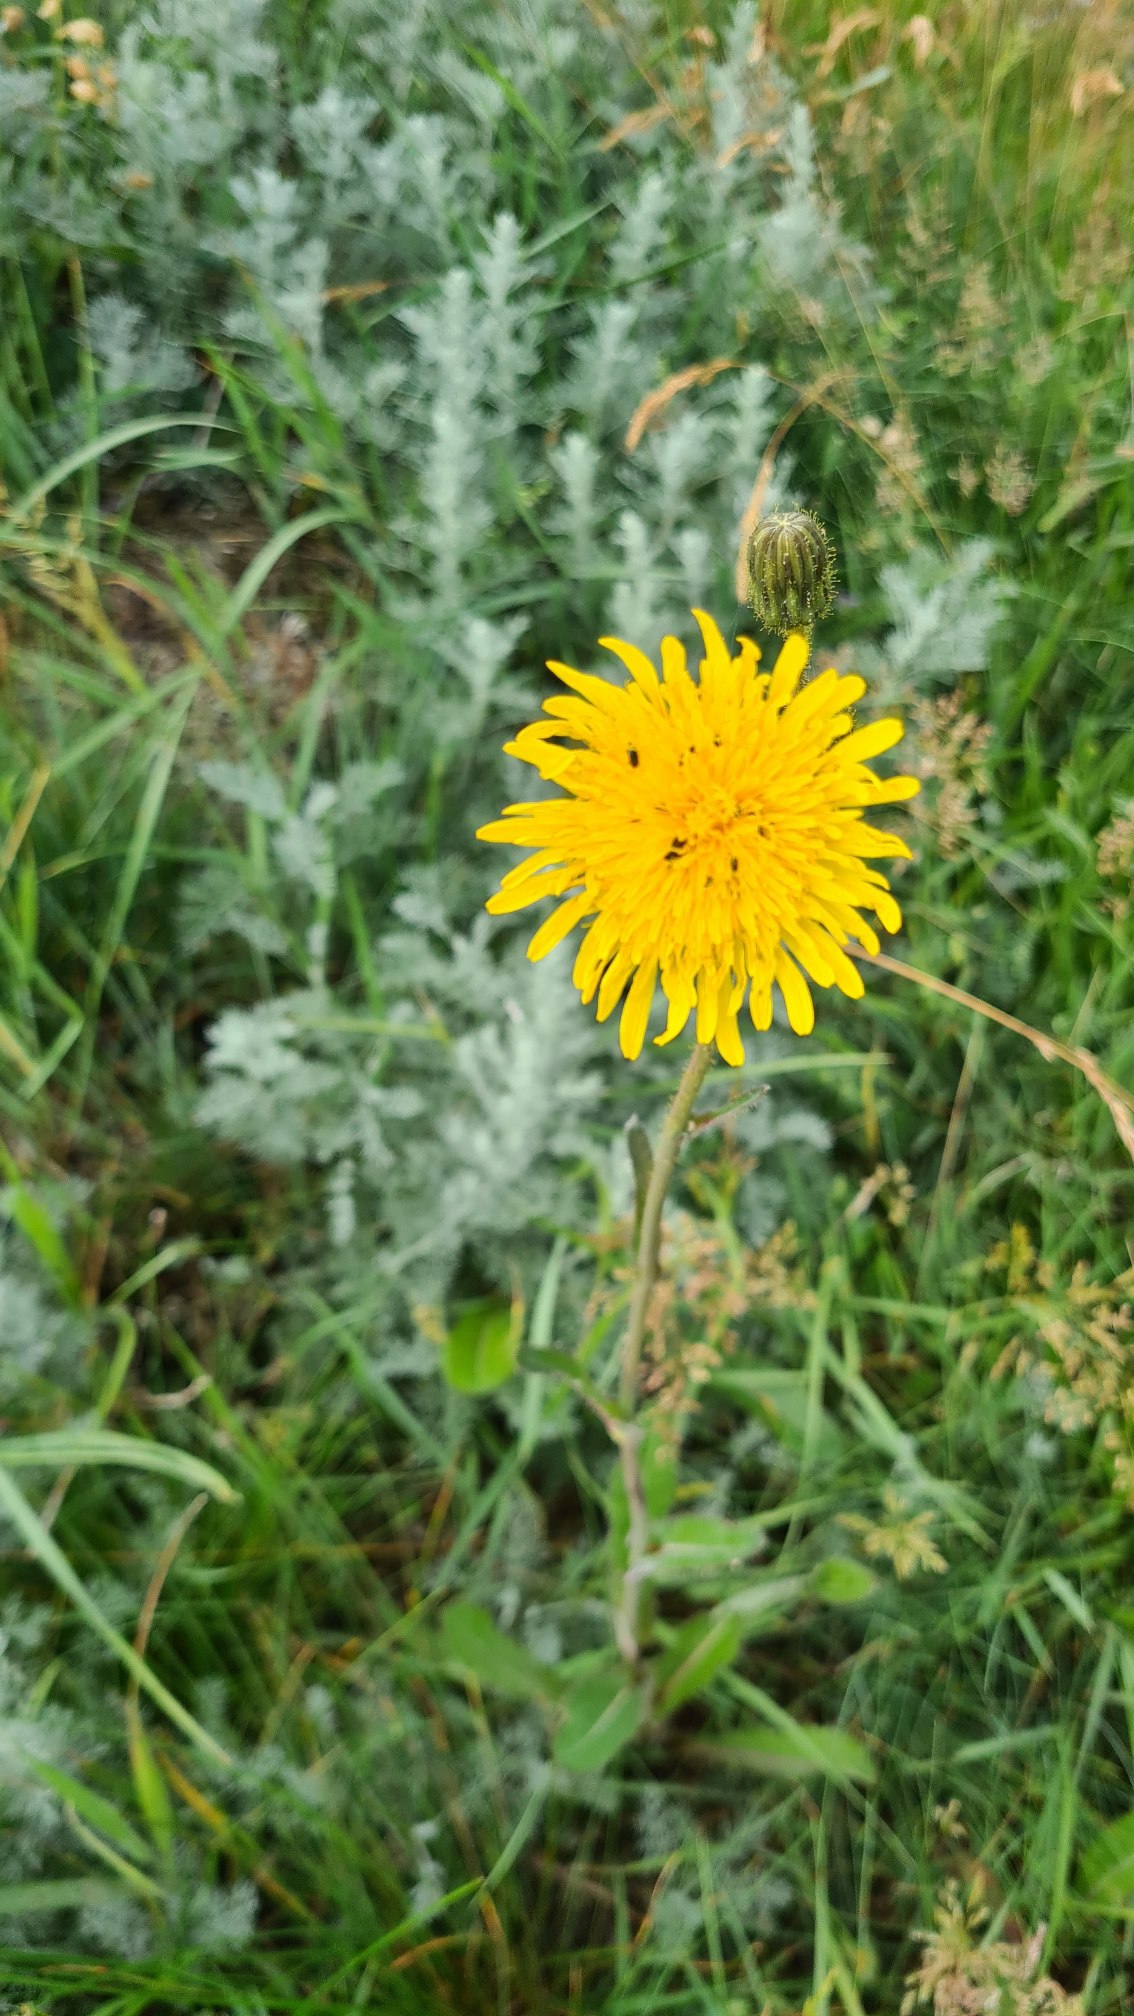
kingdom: Plantae
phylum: Tracheophyta
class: Magnoliopsida
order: Asterales
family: Asteraceae
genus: Sonchus
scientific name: Sonchus arvensis
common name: Ager-svinemælk
